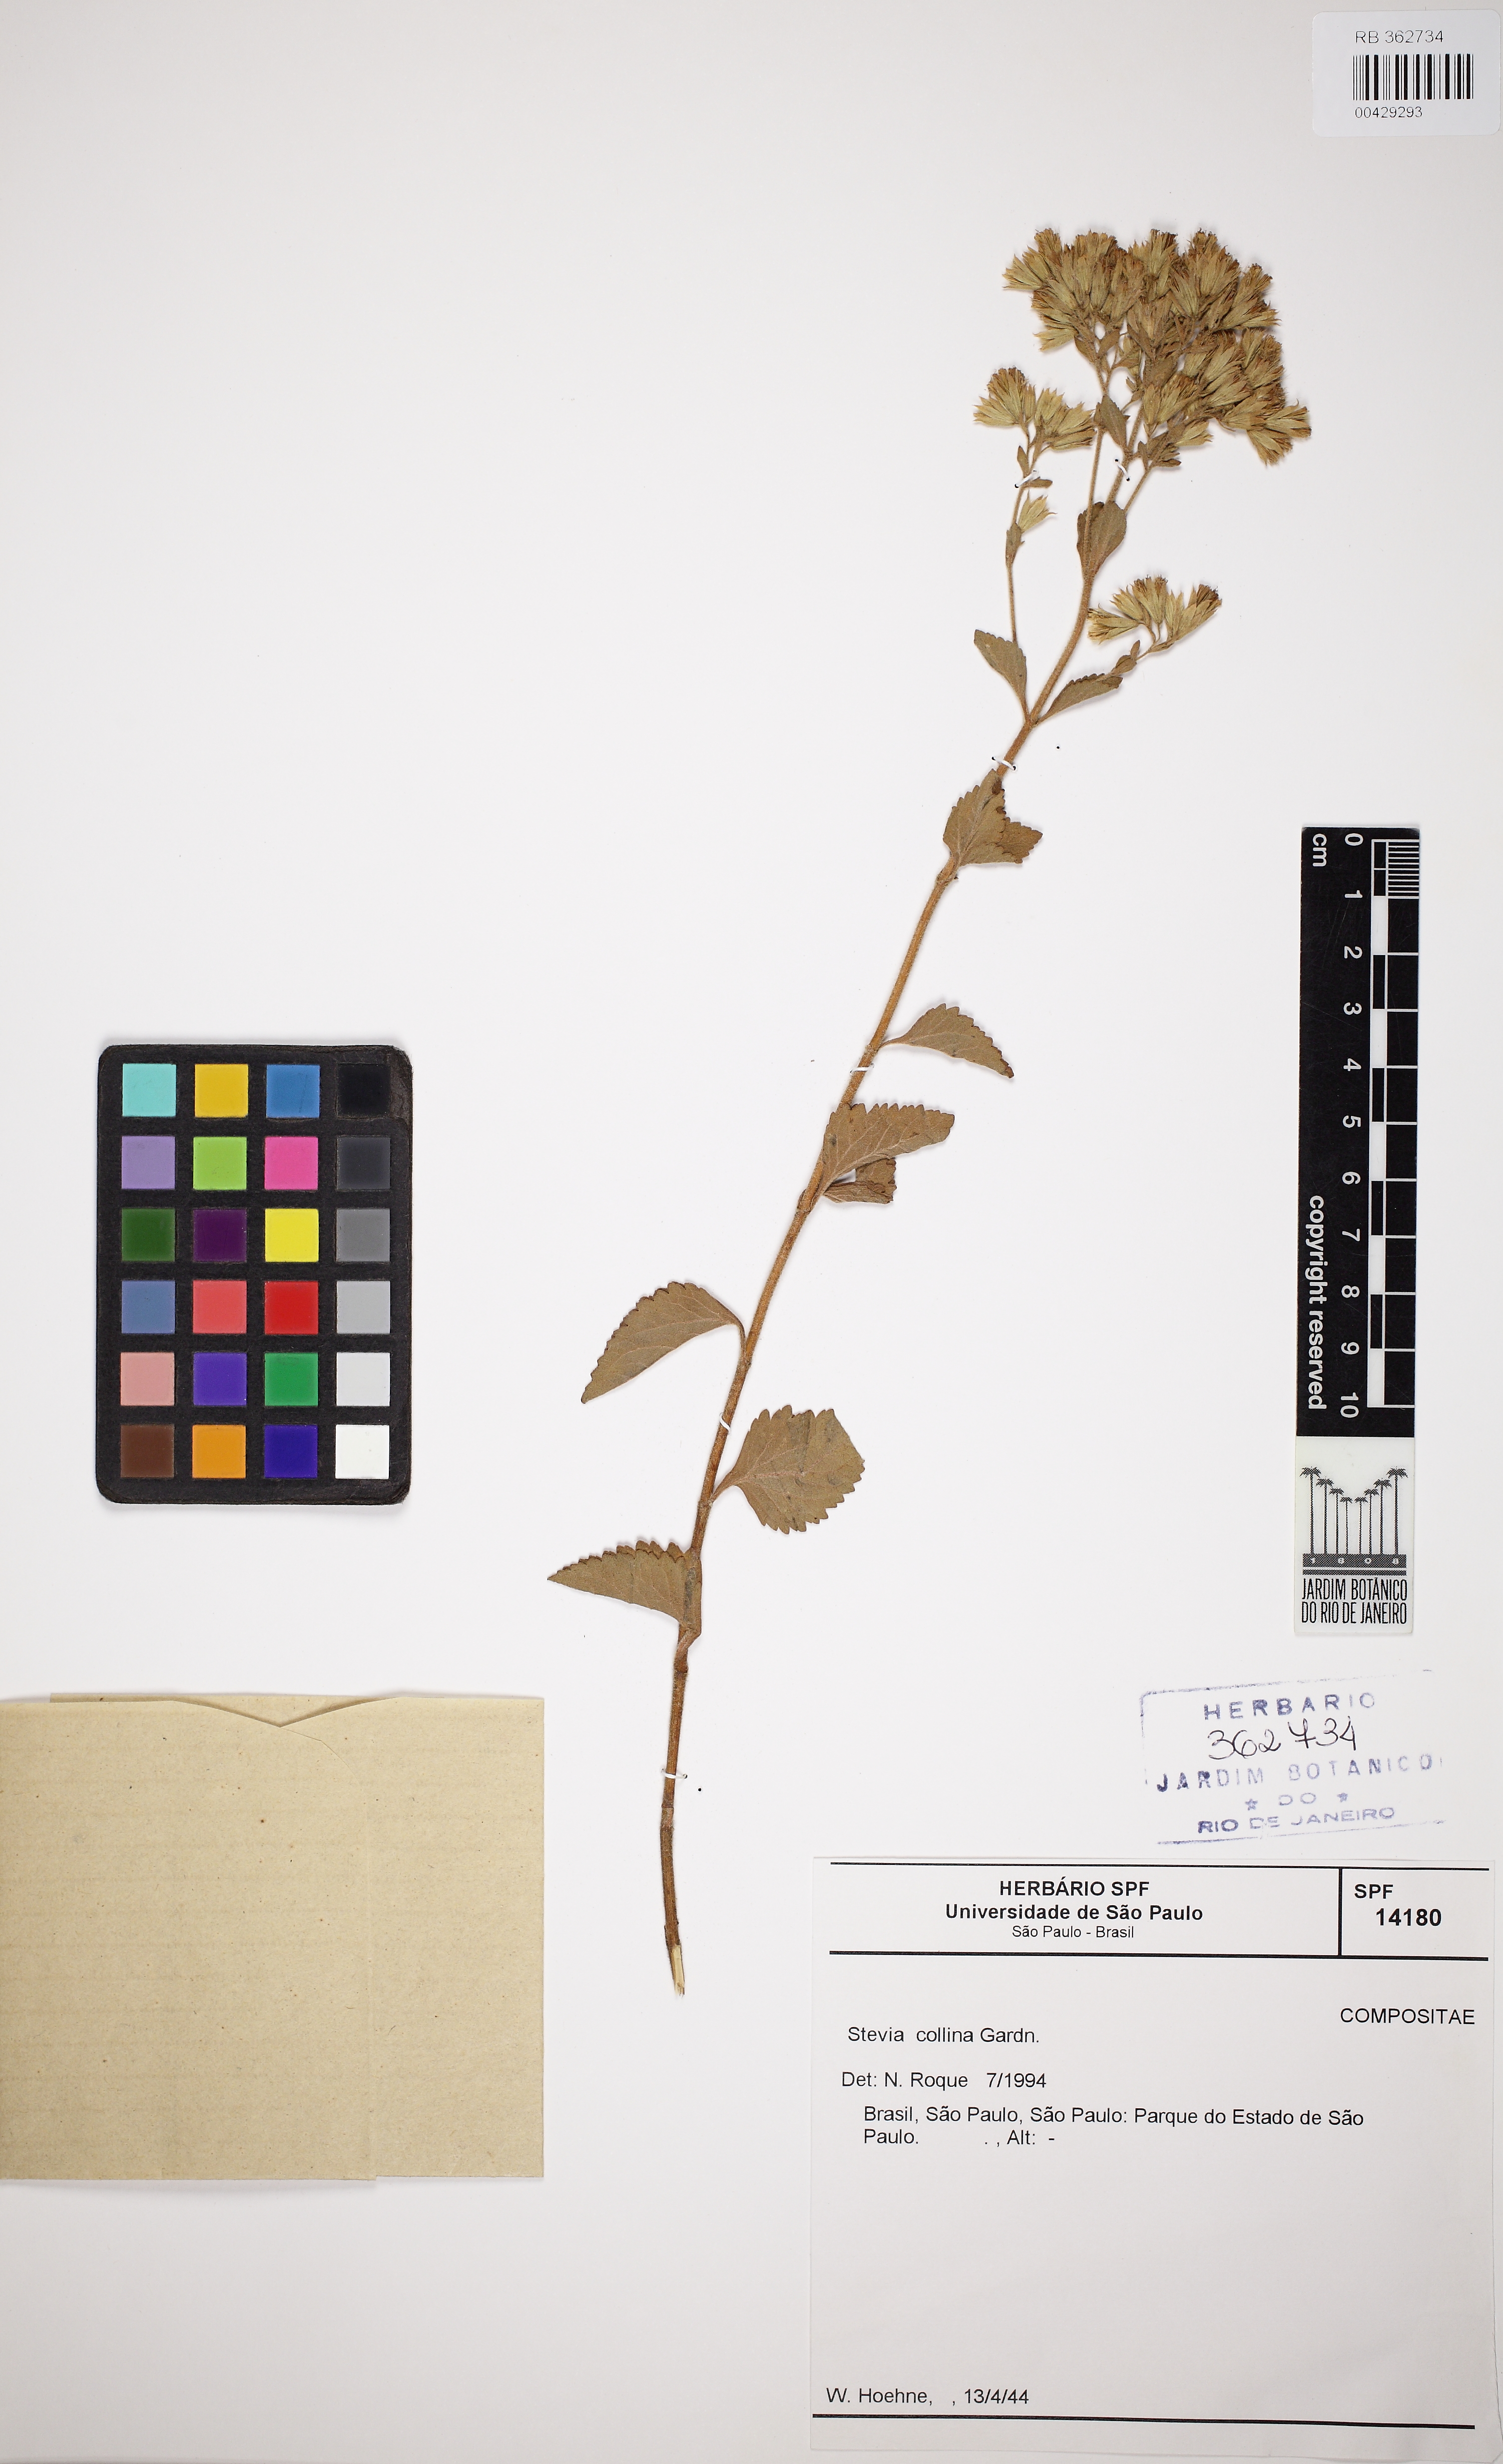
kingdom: Plantae
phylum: Tracheophyta
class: Magnoliopsida
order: Asterales
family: Asteraceae
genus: Stevia
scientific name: Stevia collina
